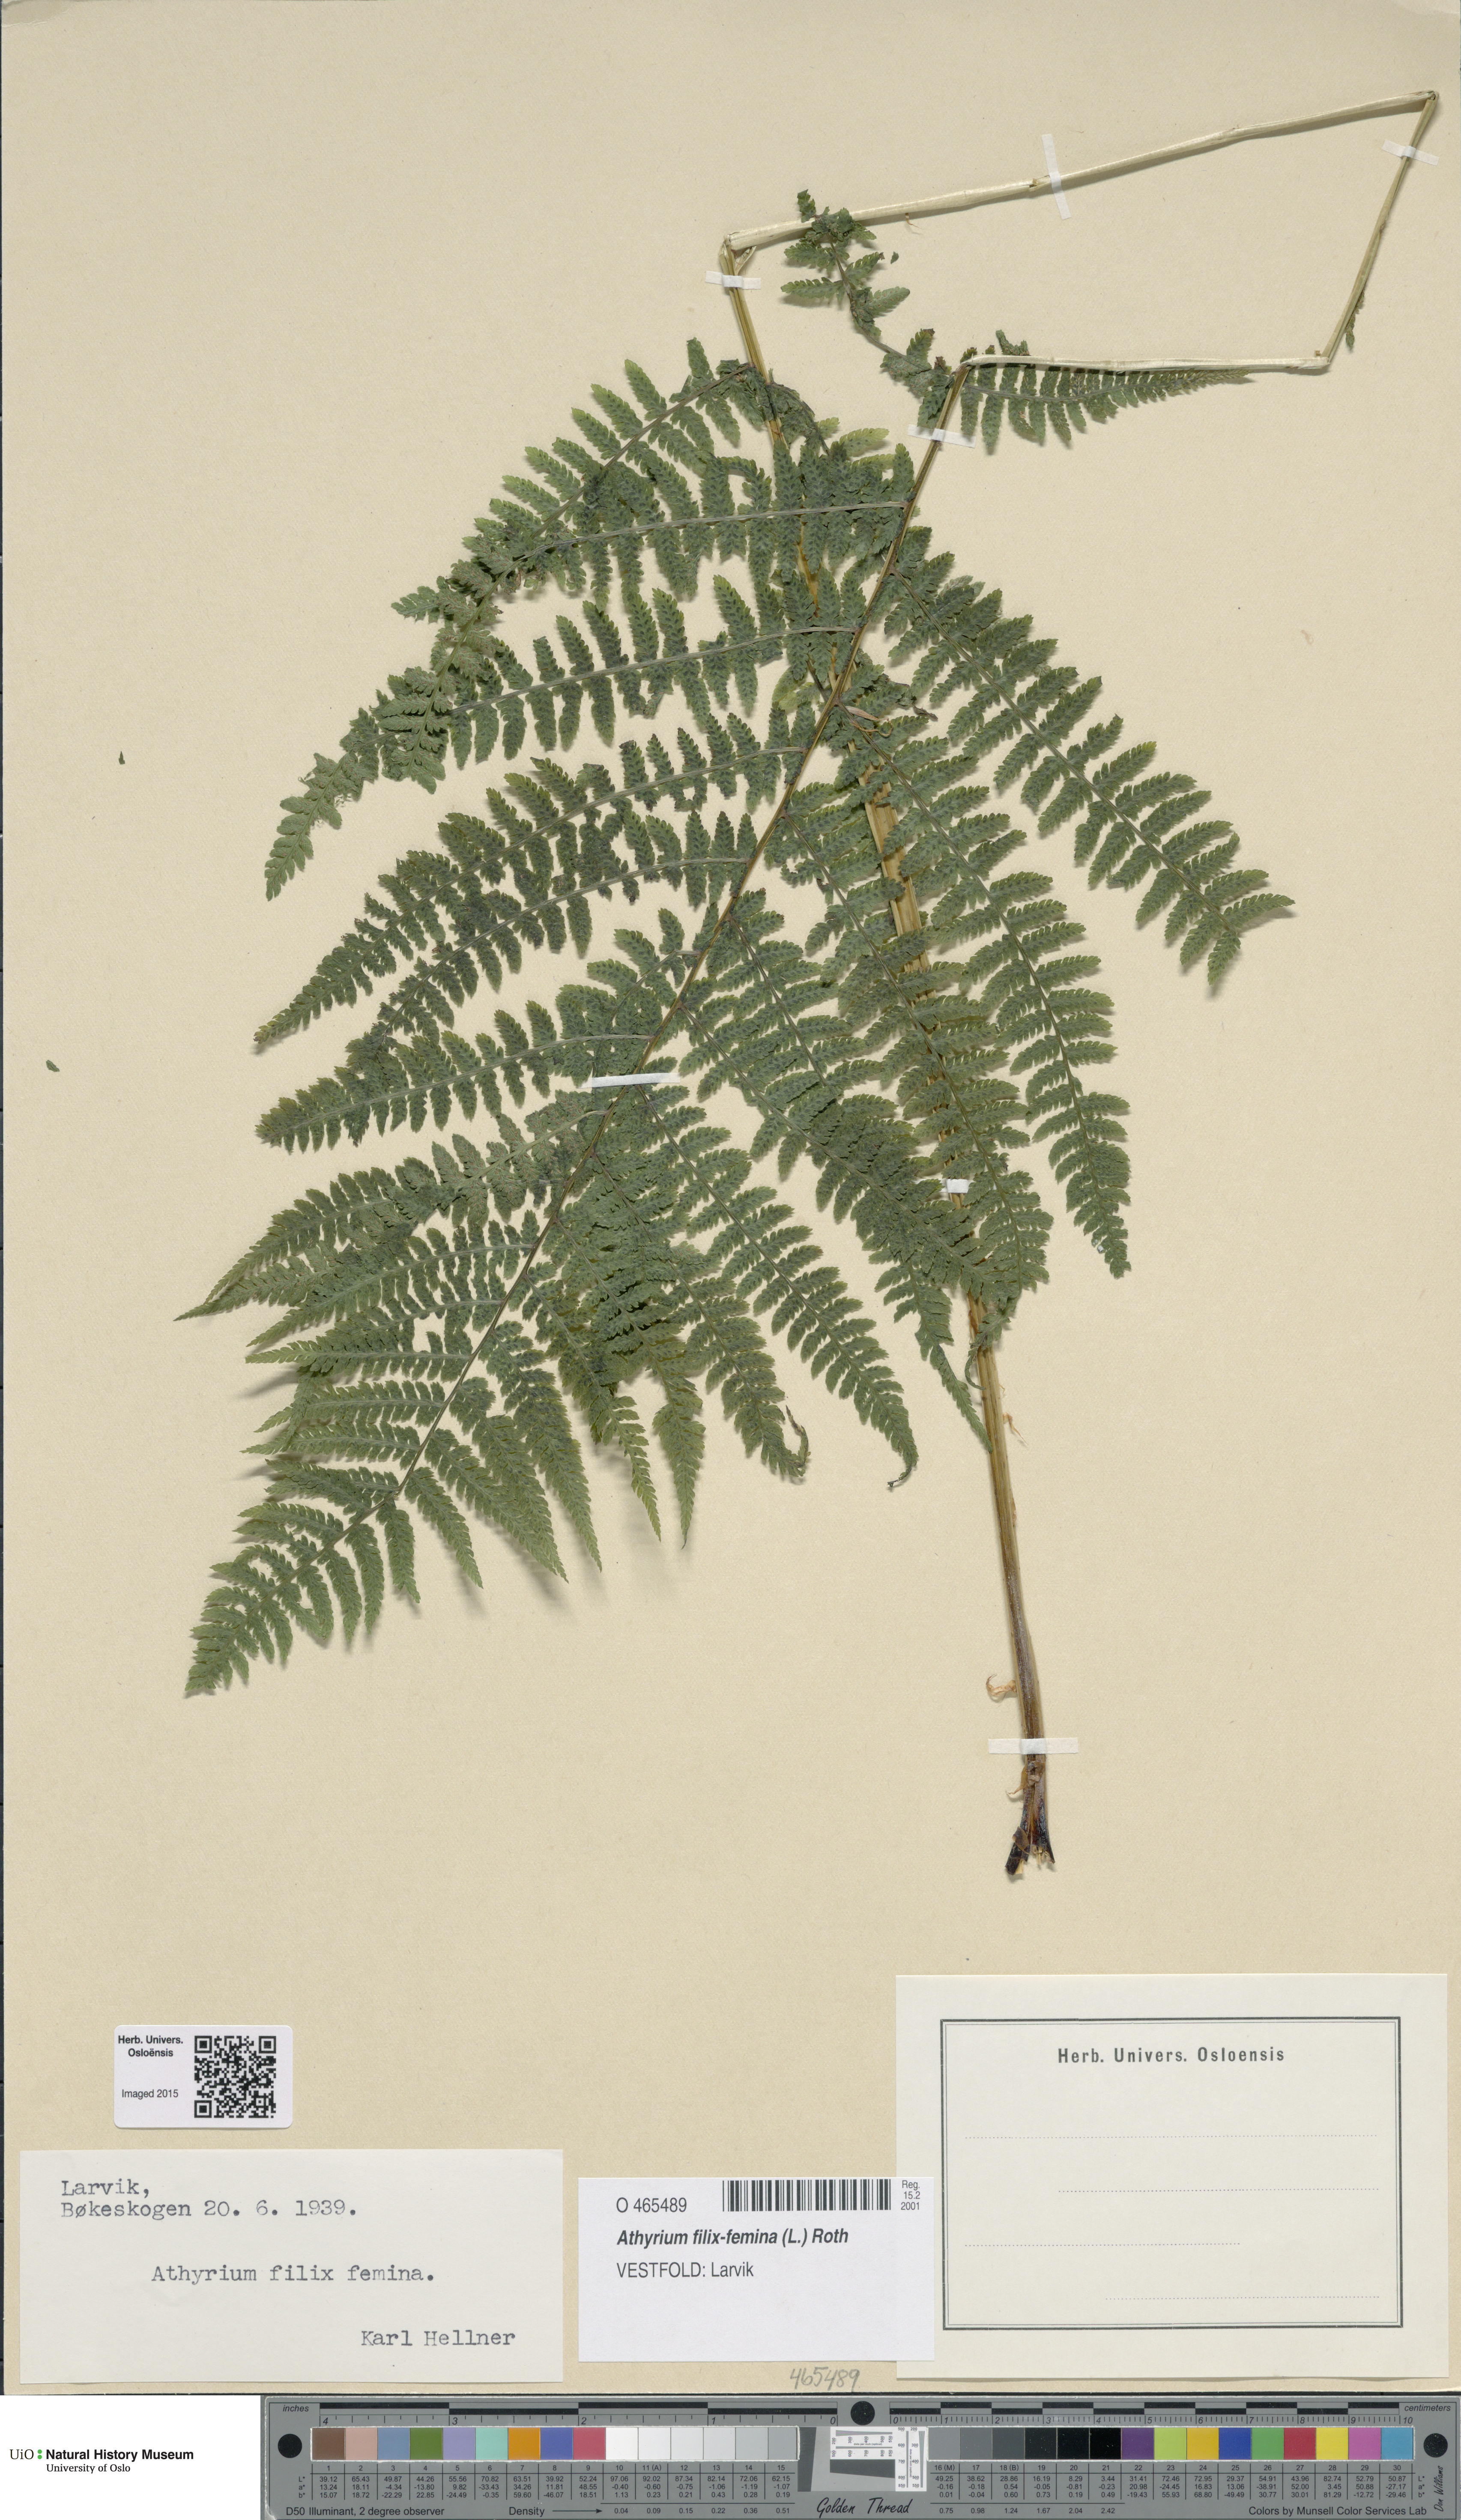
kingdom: Plantae
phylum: Tracheophyta
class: Polypodiopsida
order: Polypodiales
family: Athyriaceae
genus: Athyrium
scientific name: Athyrium filix-femina
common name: Lady fern
